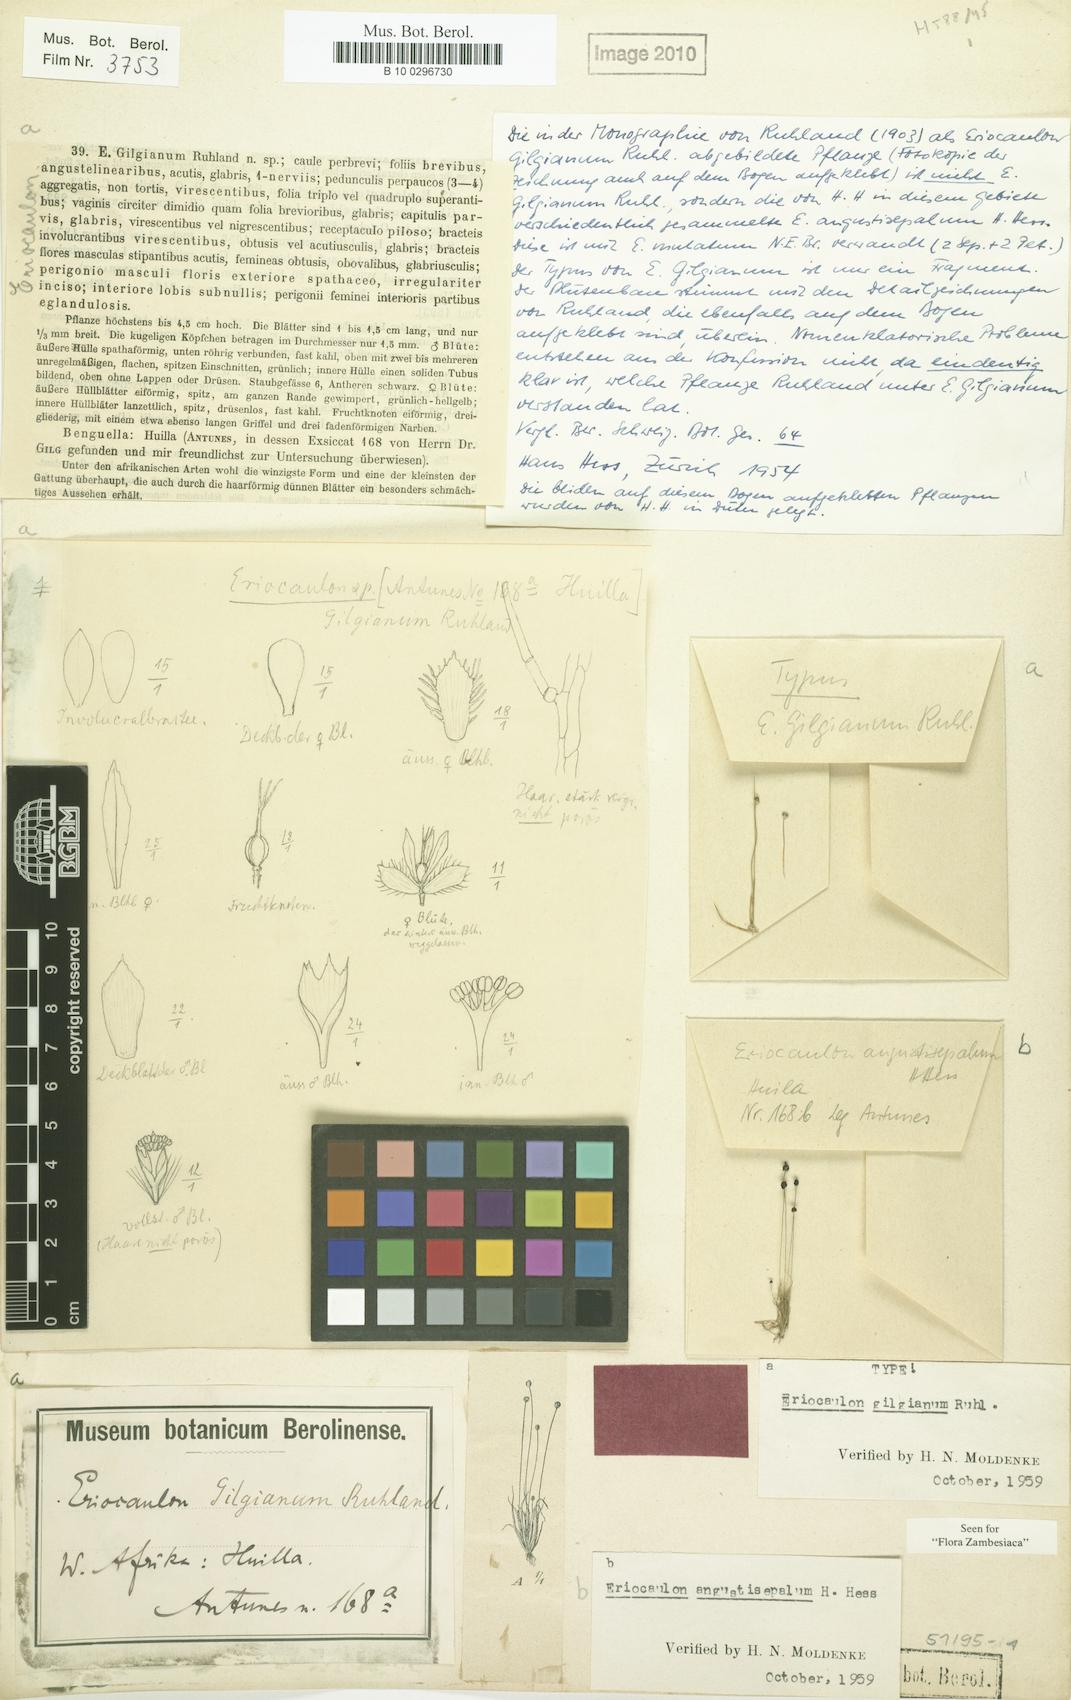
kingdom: Plantae
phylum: Tracheophyta
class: Liliopsida
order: Poales
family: Eriocaulaceae
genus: Eriocaulon
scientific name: Eriocaulon abyssinicum
